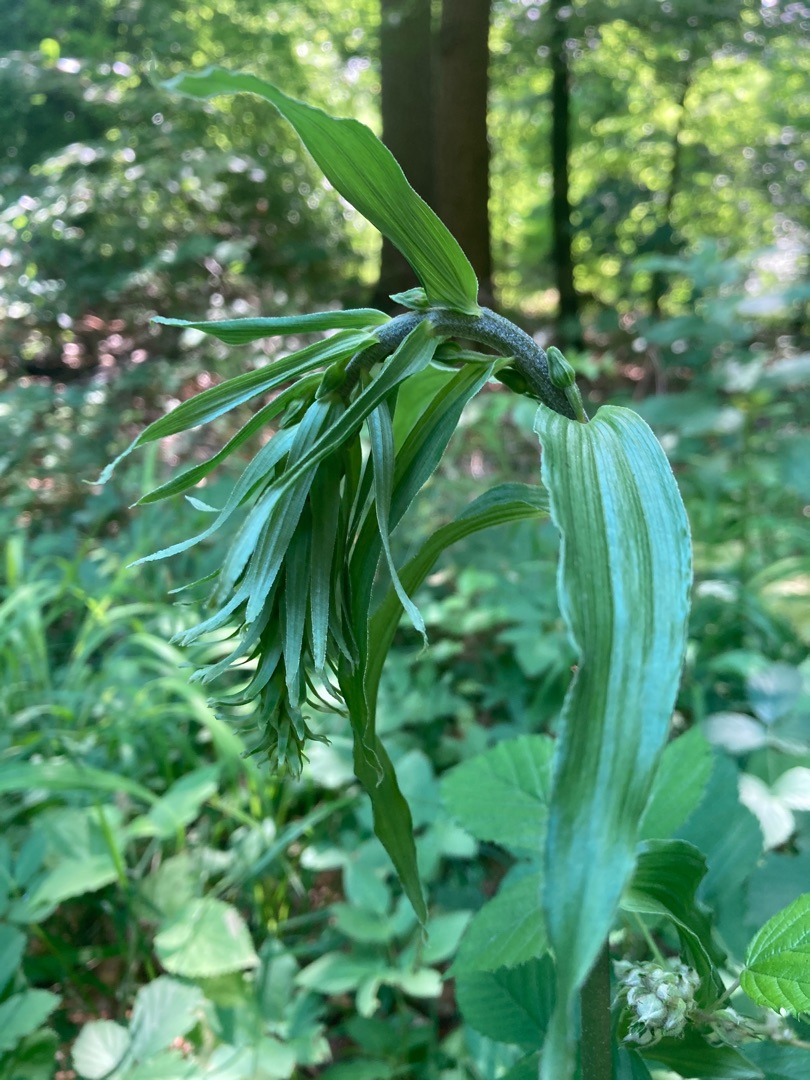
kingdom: Plantae
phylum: Tracheophyta
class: Liliopsida
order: Asparagales
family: Orchidaceae
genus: Epipactis
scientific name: Epipactis helleborine
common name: Skov-hullæbe
